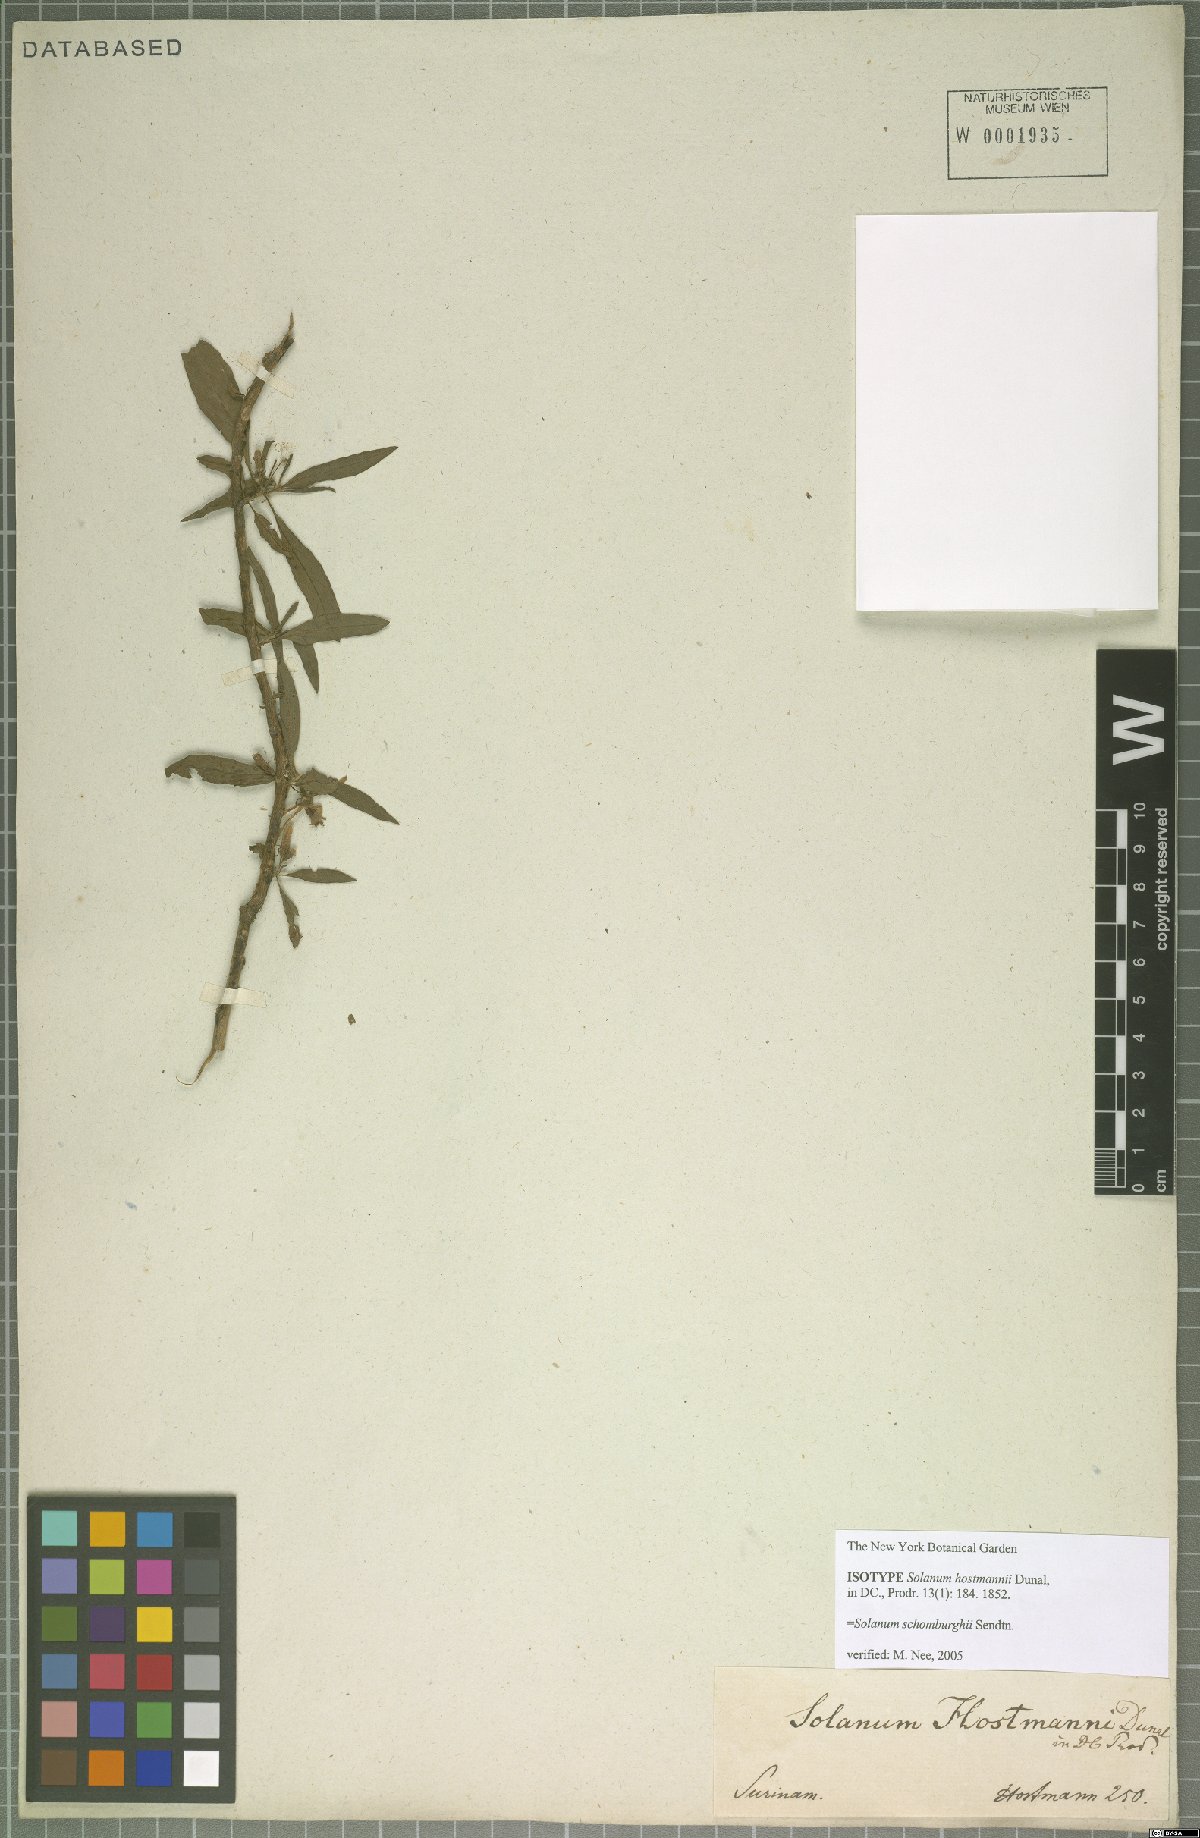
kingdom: Plantae
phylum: Tracheophyta
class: Magnoliopsida
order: Solanales
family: Solanaceae
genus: Solanum
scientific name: Solanum schomburgkii
